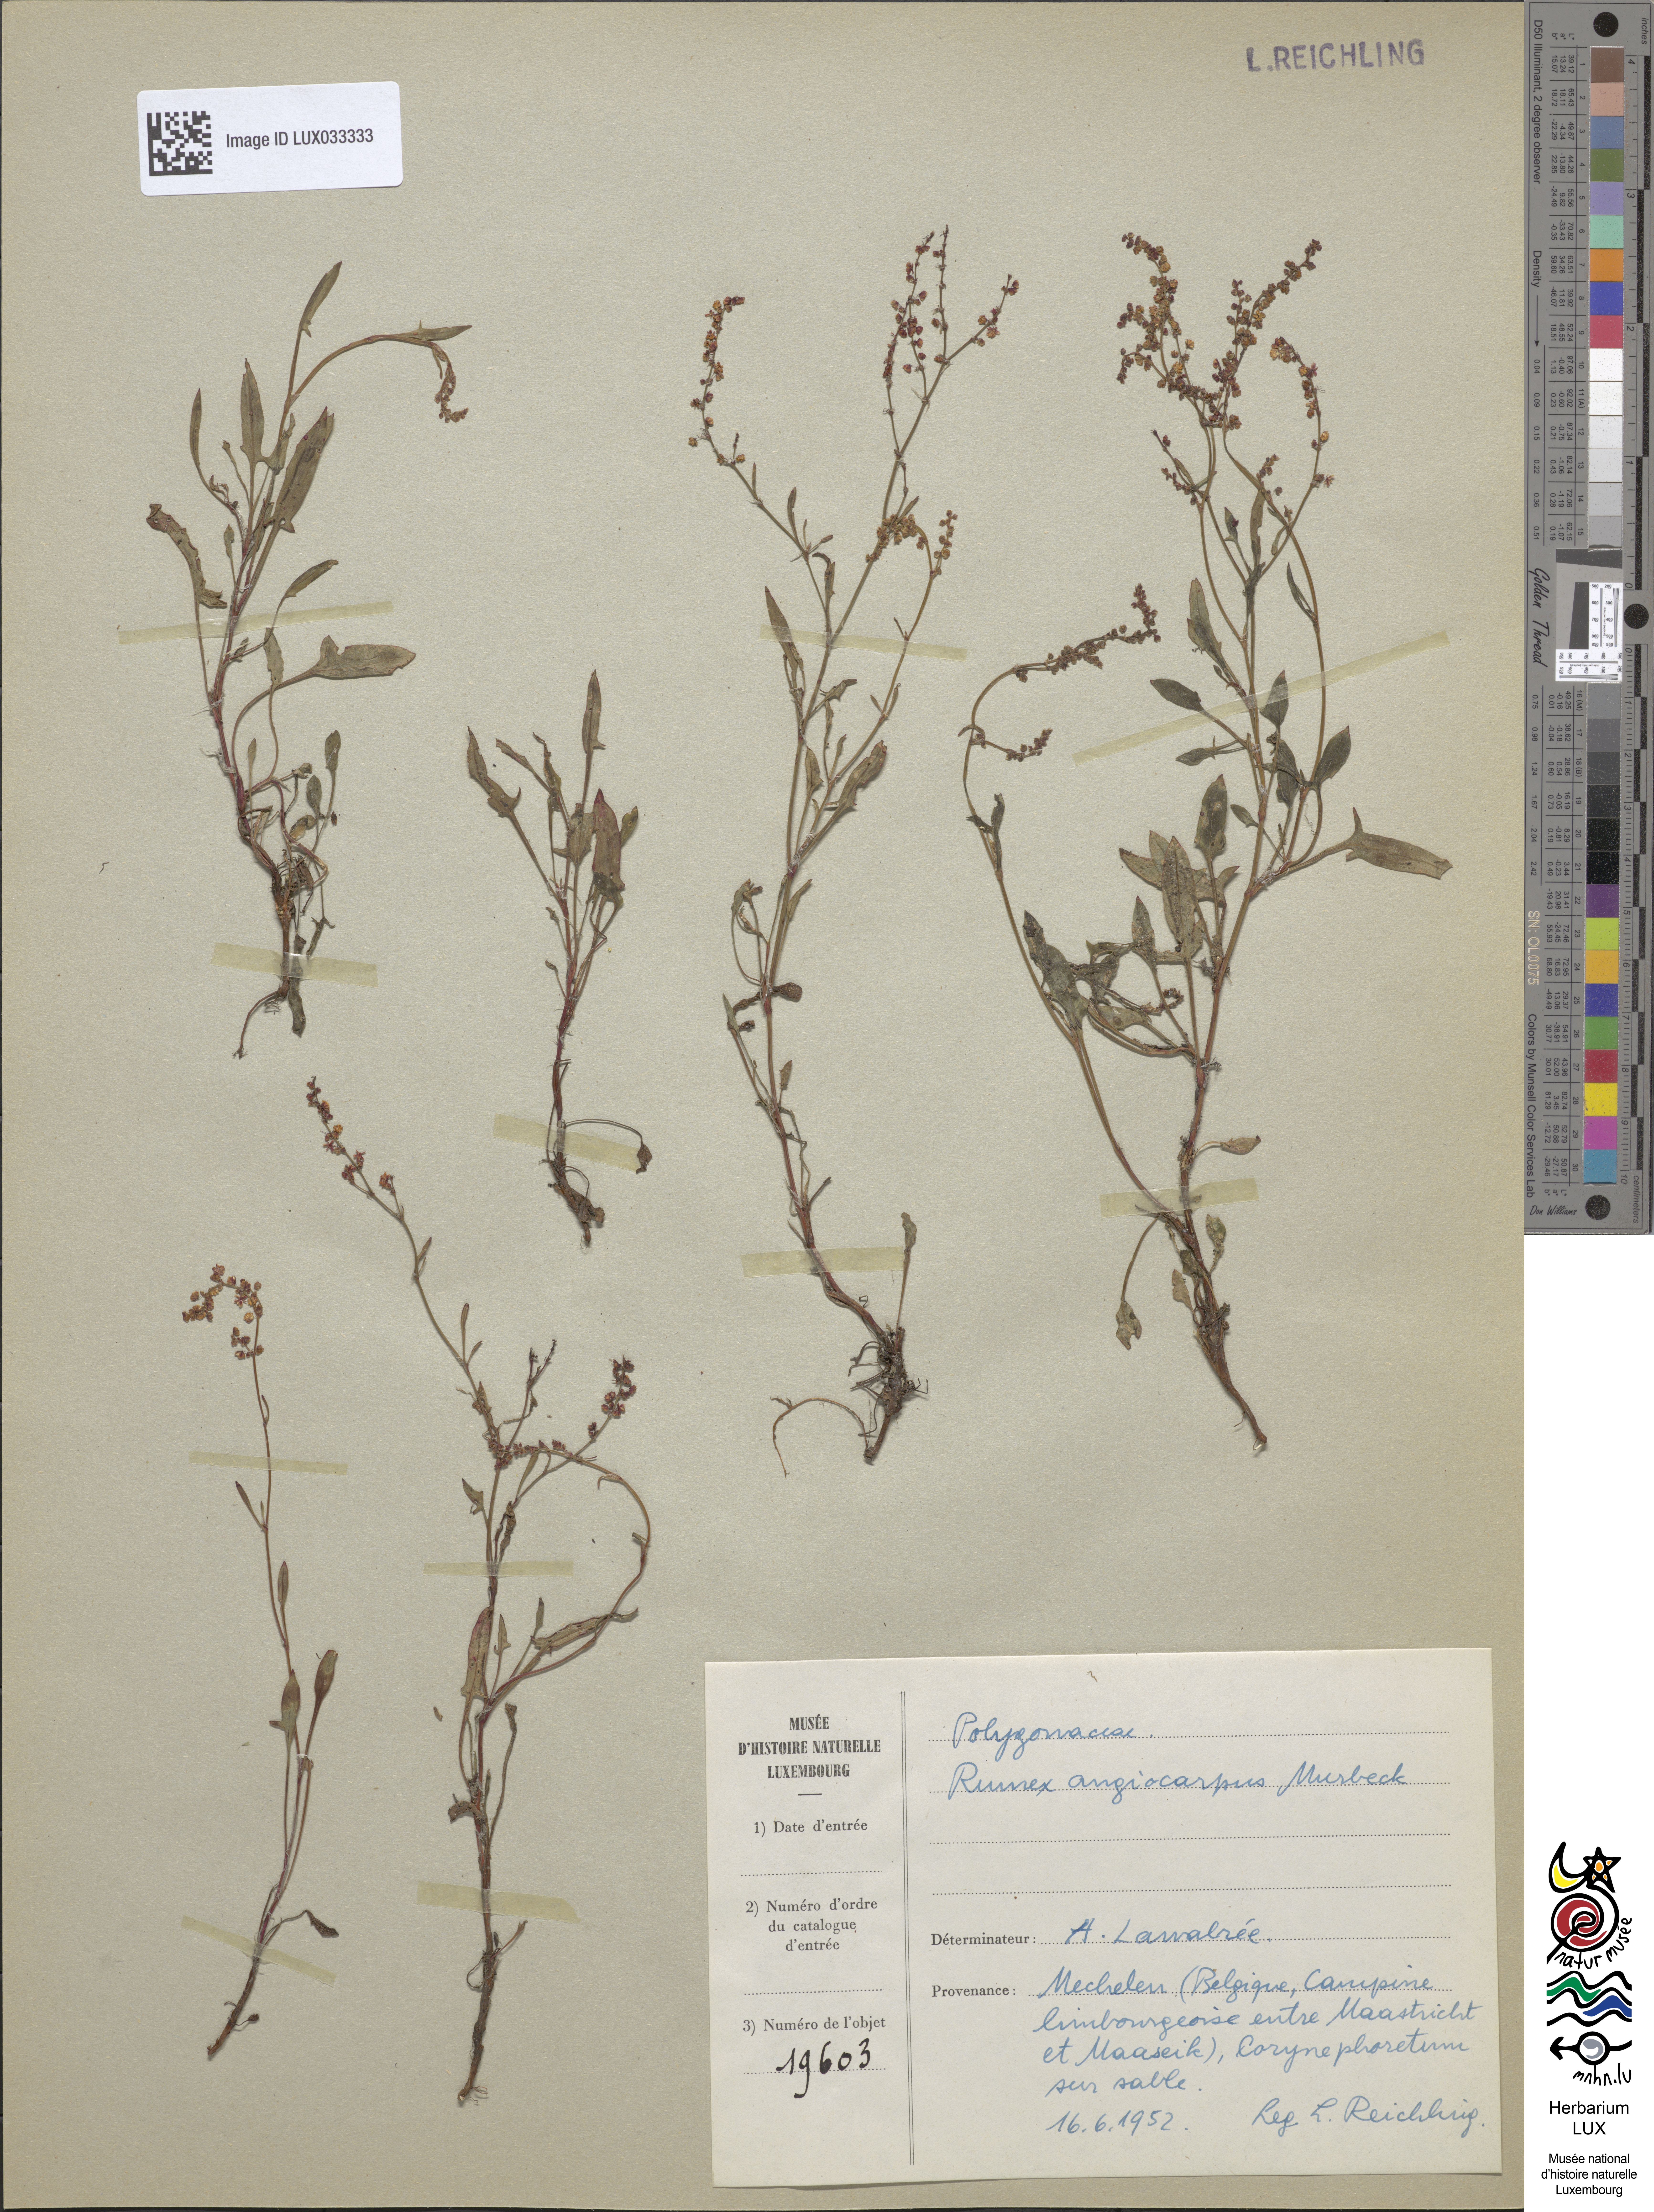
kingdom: Plantae
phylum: Tracheophyta
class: Magnoliopsida
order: Caryophyllales
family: Polygonaceae
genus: Rumex
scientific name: Rumex acetosella
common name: Common sheep sorrel
